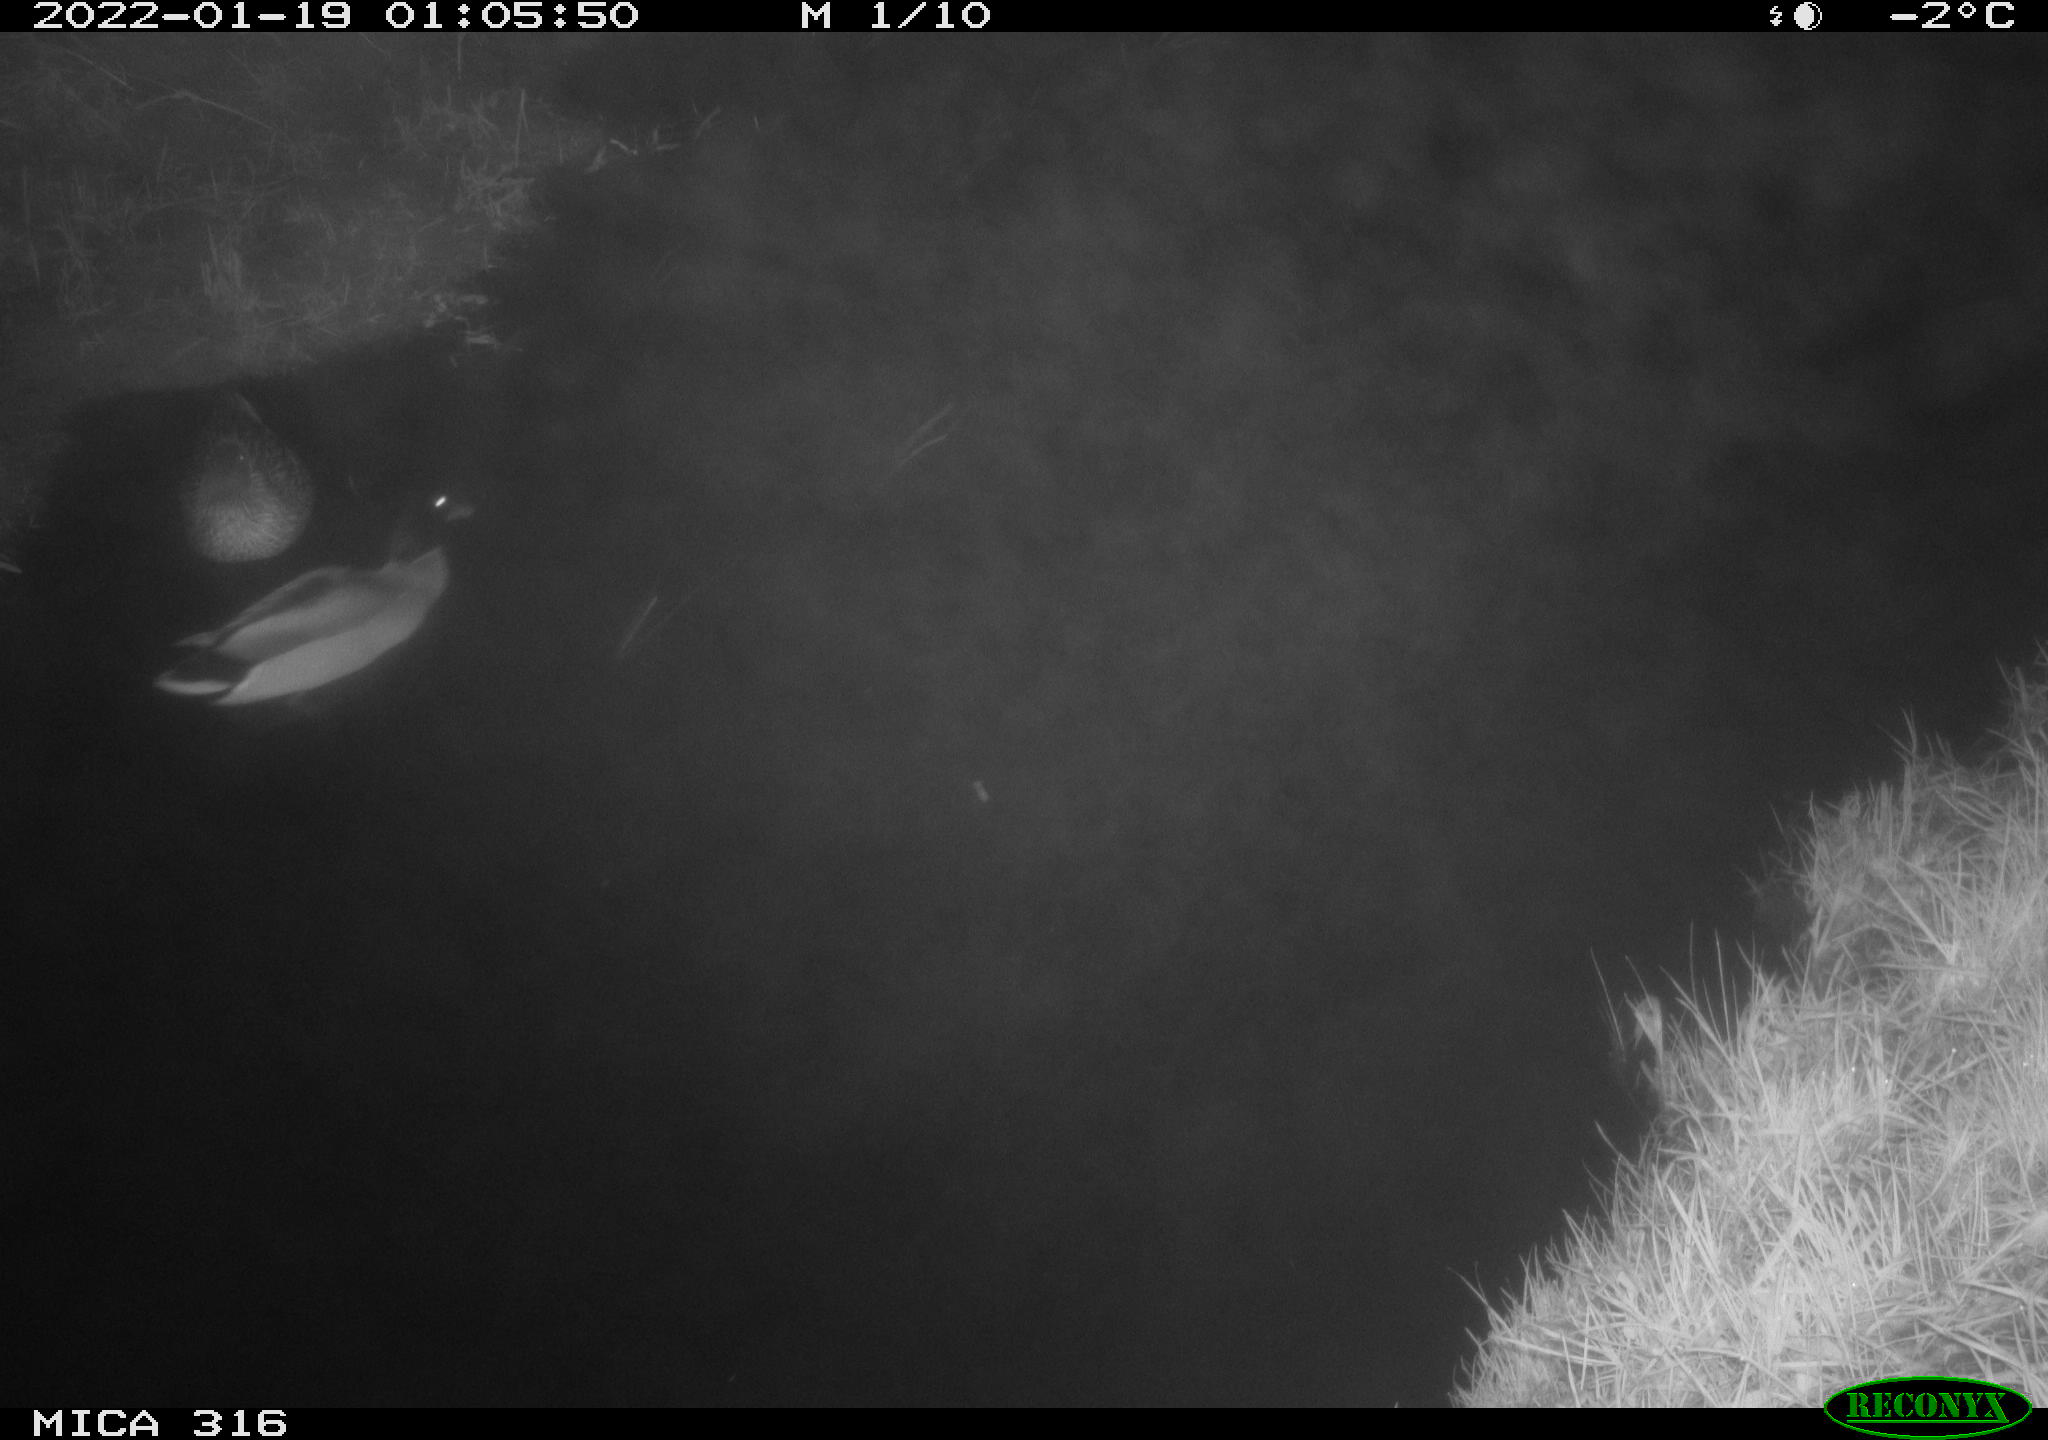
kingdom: Animalia
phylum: Chordata
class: Aves
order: Anseriformes
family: Anatidae
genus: Anas
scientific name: Anas platyrhynchos
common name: Mallard
